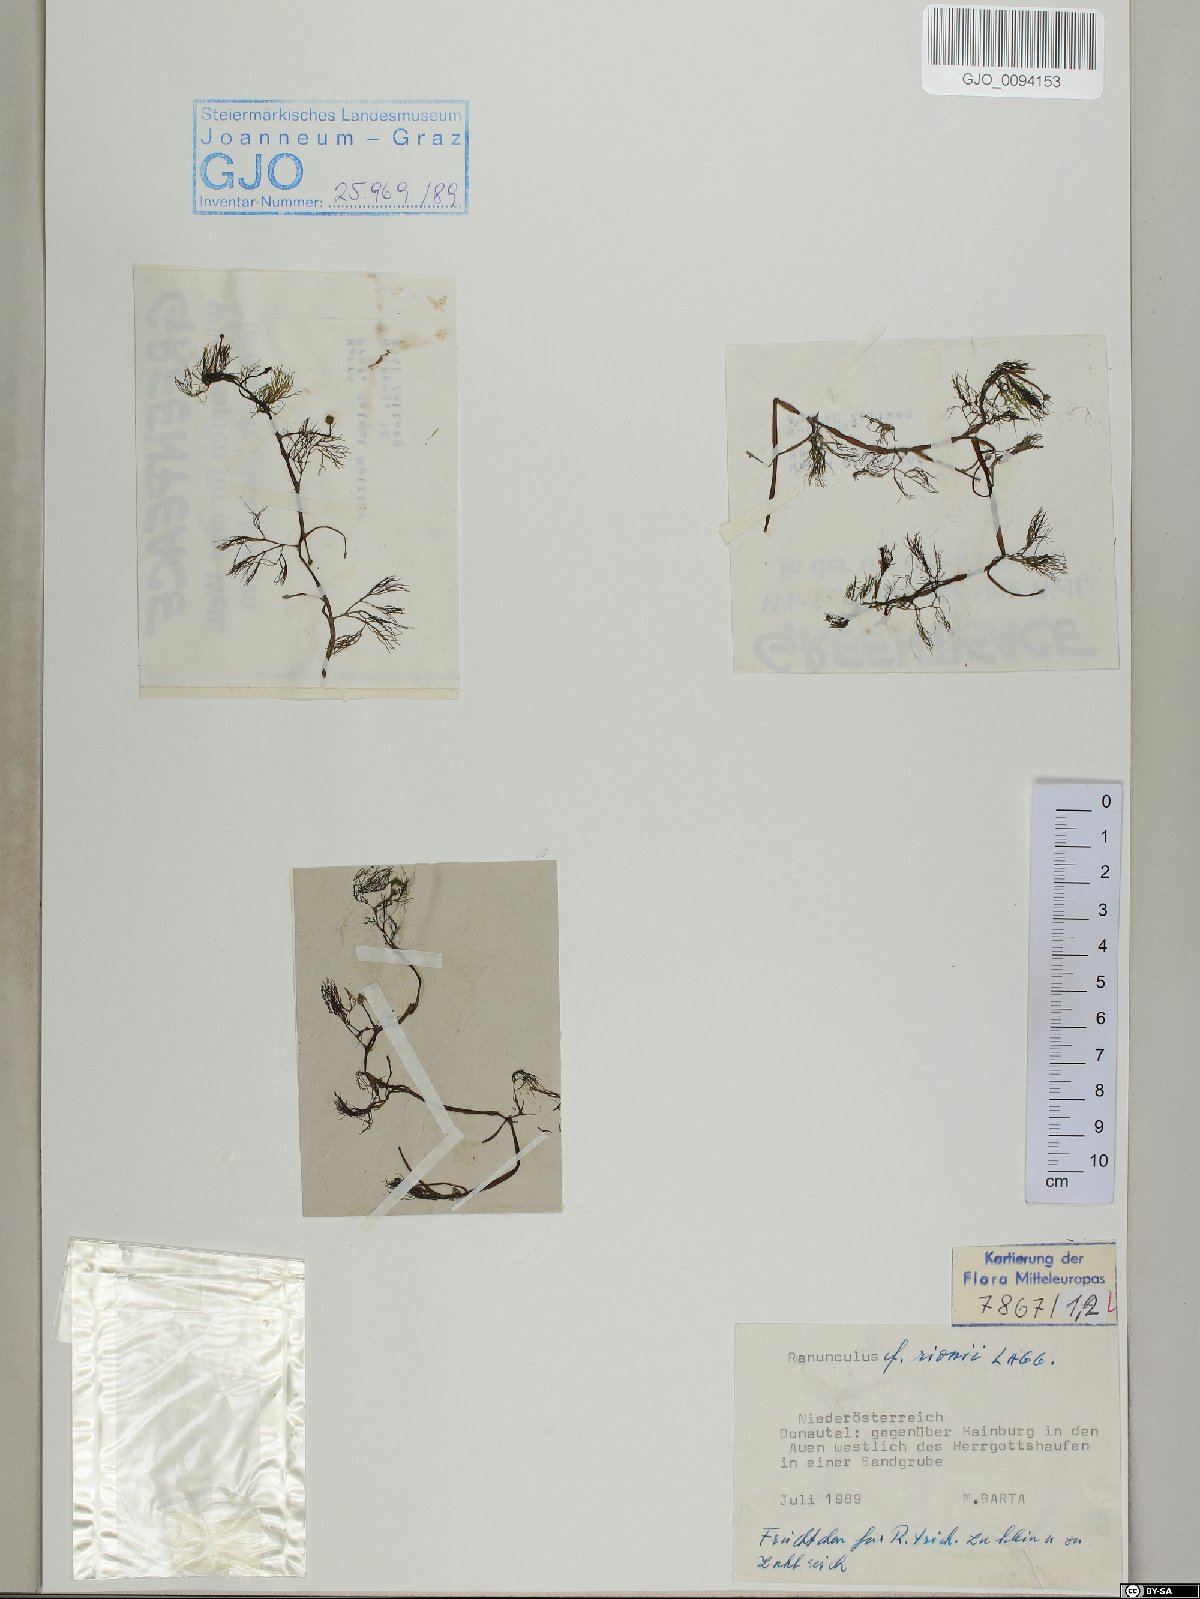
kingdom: Plantae
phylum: Tracheophyta
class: Magnoliopsida
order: Ranunculales
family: Ranunculaceae
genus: Ranunculus
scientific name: Ranunculus rionii
